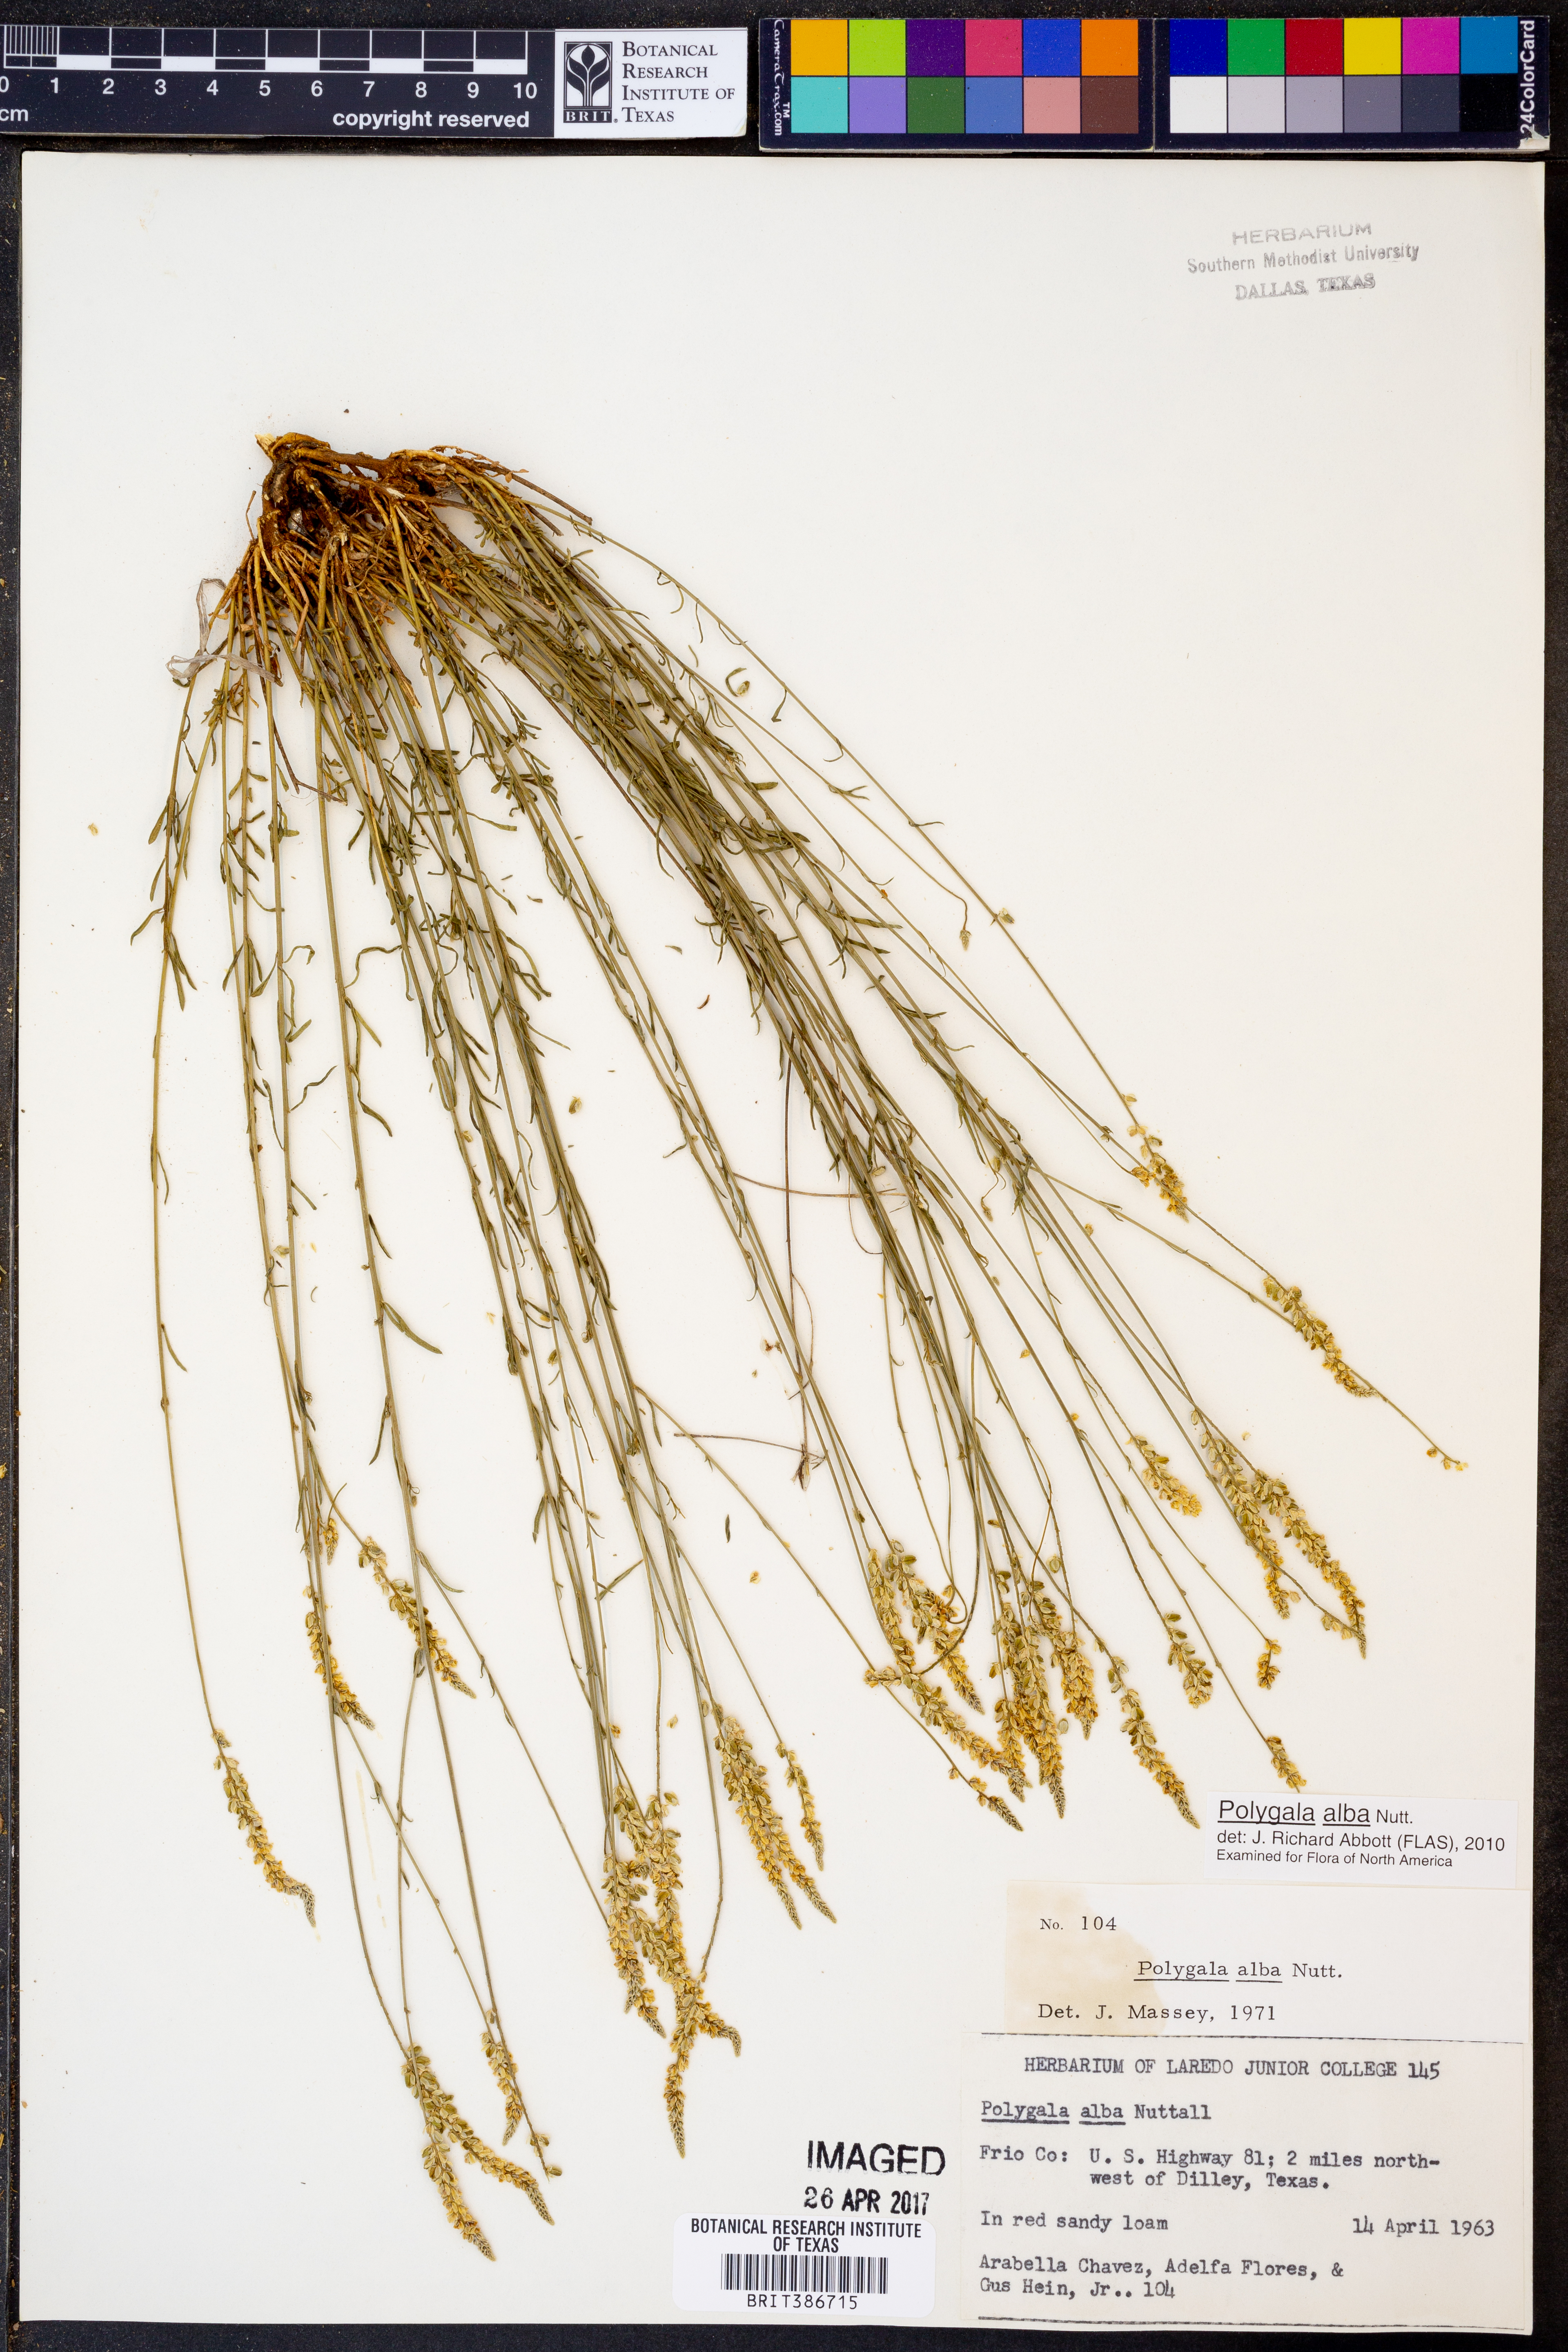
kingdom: Plantae
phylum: Tracheophyta
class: Magnoliopsida
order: Fabales
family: Polygalaceae
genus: Polygala
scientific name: Polygala alba
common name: White milkwort
